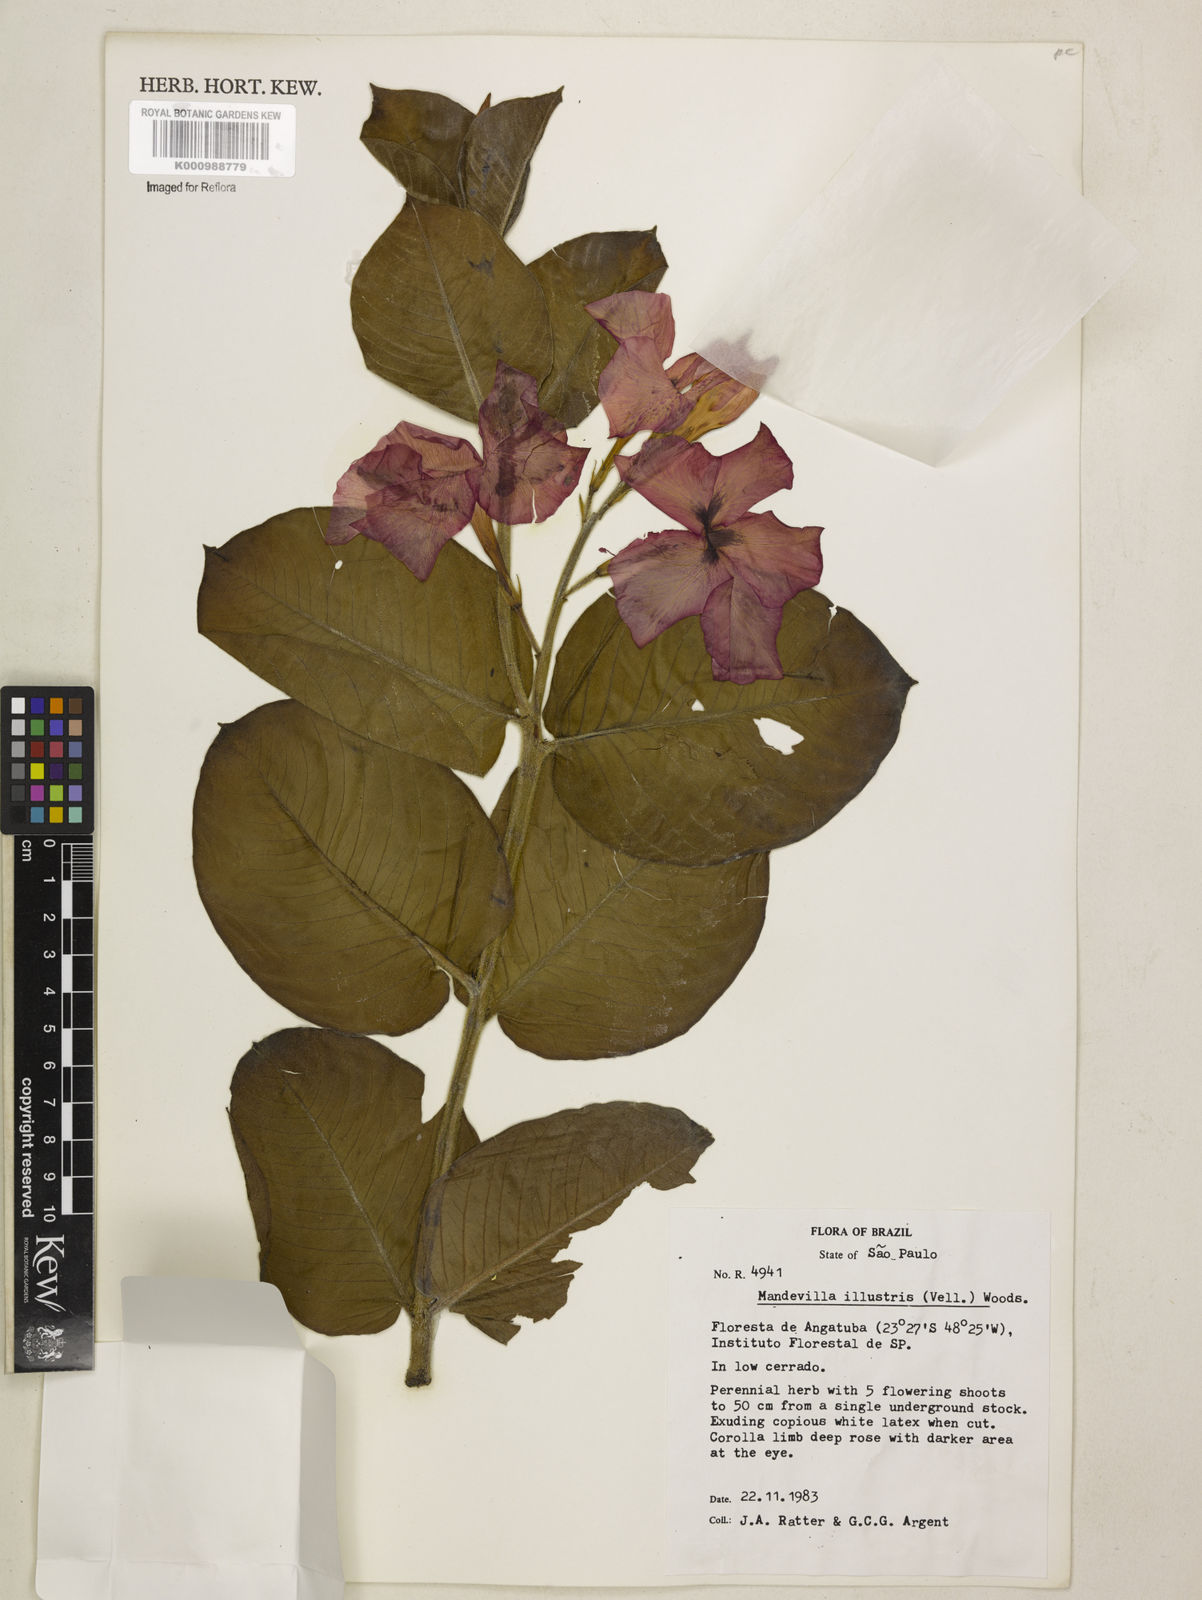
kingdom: Plantae
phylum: Tracheophyta
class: Magnoliopsida
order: Gentianales
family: Apocynaceae
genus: Mandevilla
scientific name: Mandevilla illustris
